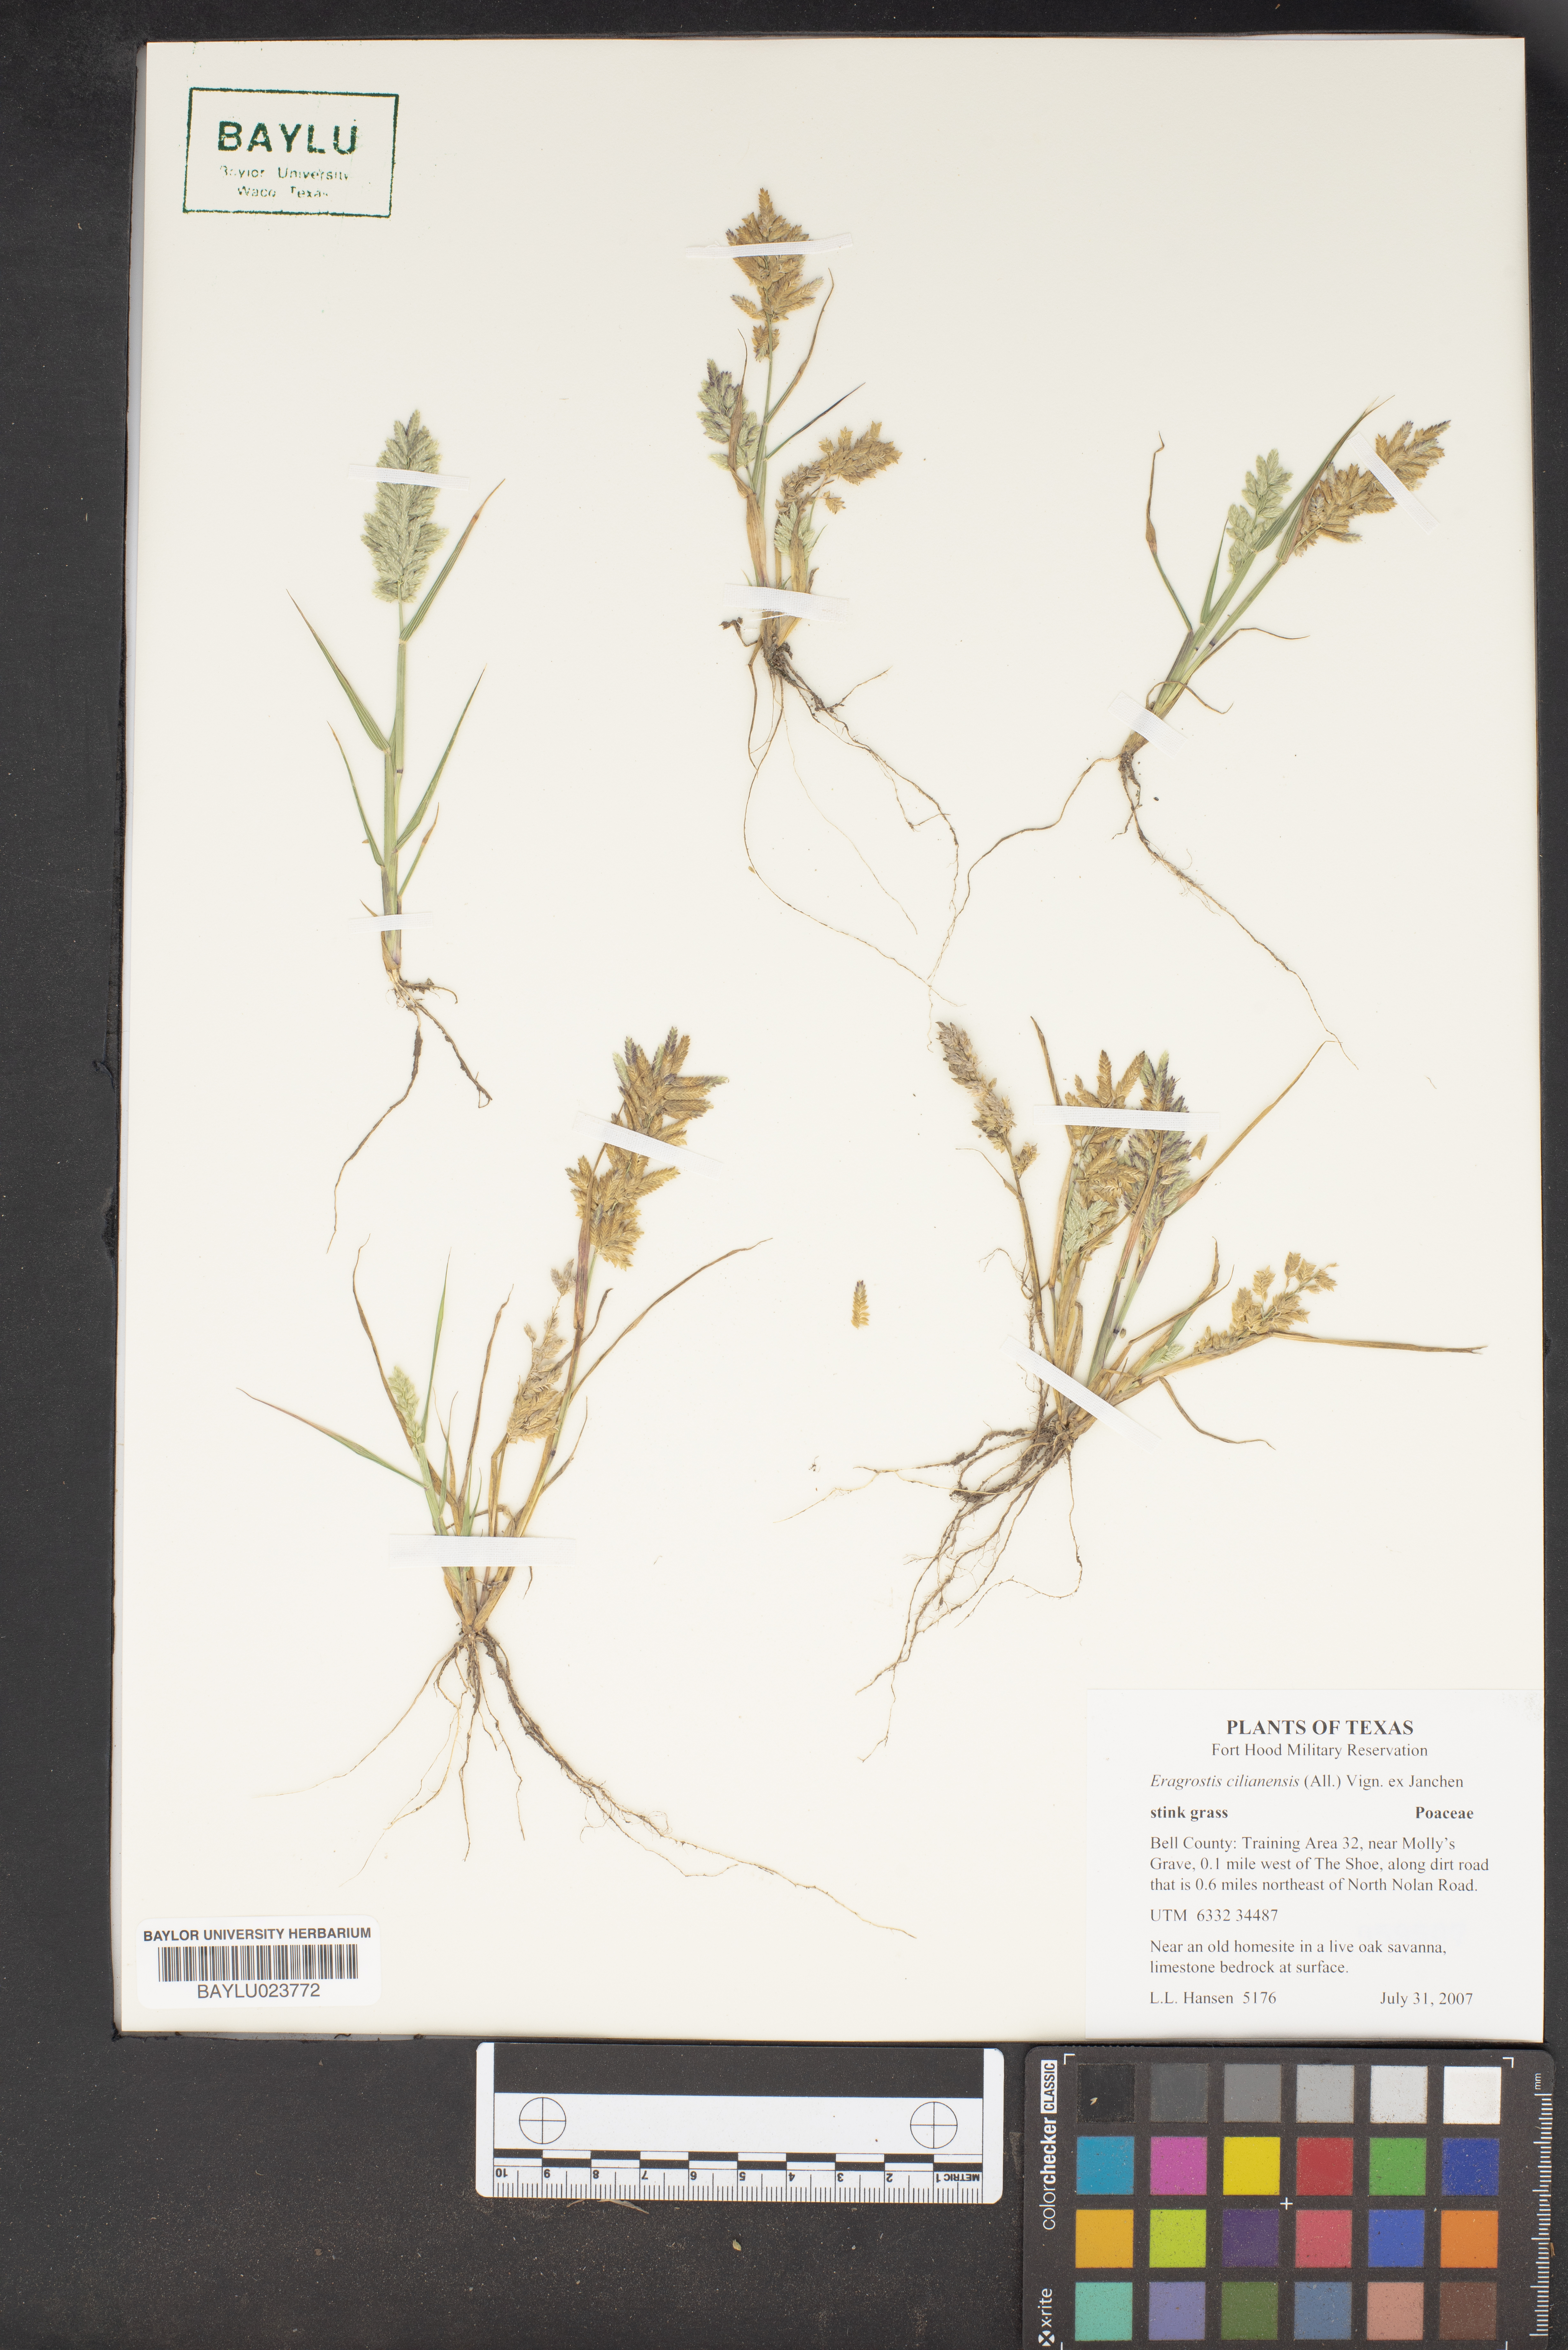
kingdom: Plantae
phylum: Tracheophyta
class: Liliopsida
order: Poales
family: Poaceae
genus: Eragrostis
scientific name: Eragrostis cilianensis
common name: Stinkgrass
